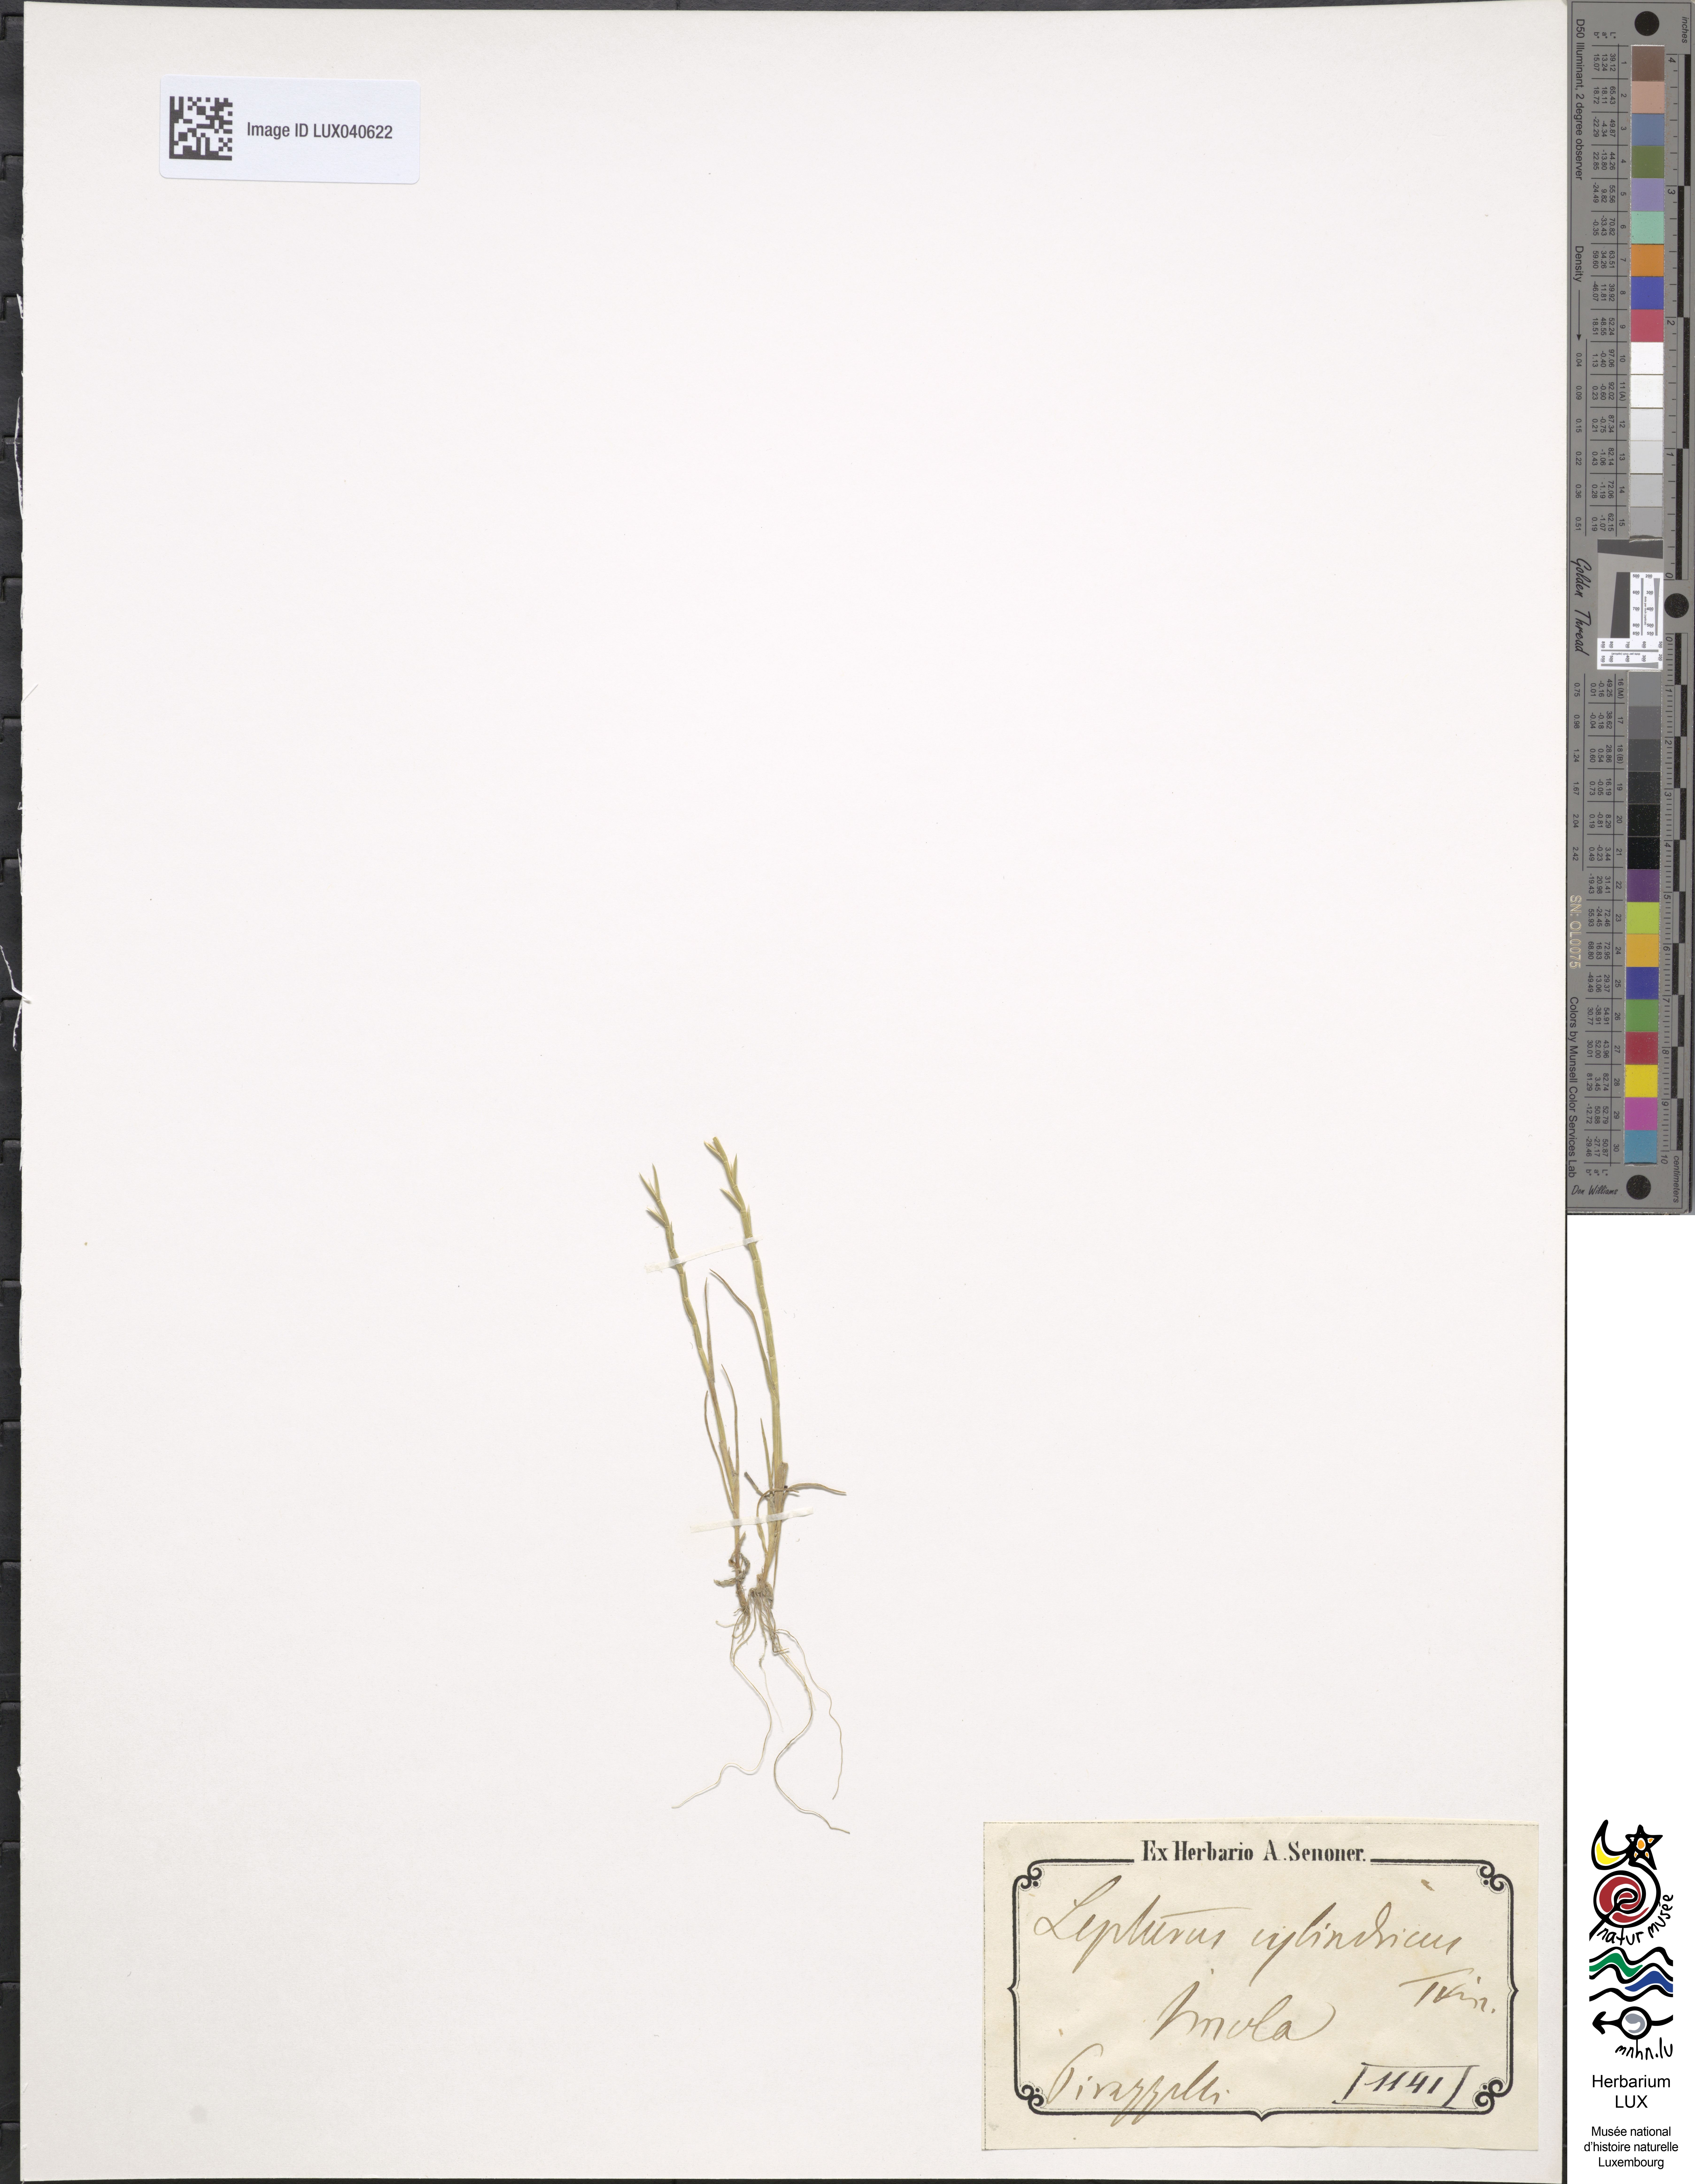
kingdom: Plantae
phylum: Tracheophyta
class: Liliopsida
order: Poales
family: Poaceae
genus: Parapholis
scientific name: Parapholis cylindrica
